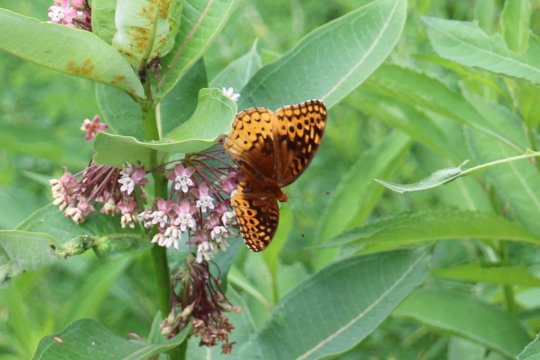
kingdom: Animalia
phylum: Arthropoda
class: Insecta
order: Lepidoptera
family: Nymphalidae
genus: Speyeria
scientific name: Speyeria cybele
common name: Great Spangled Fritillary
